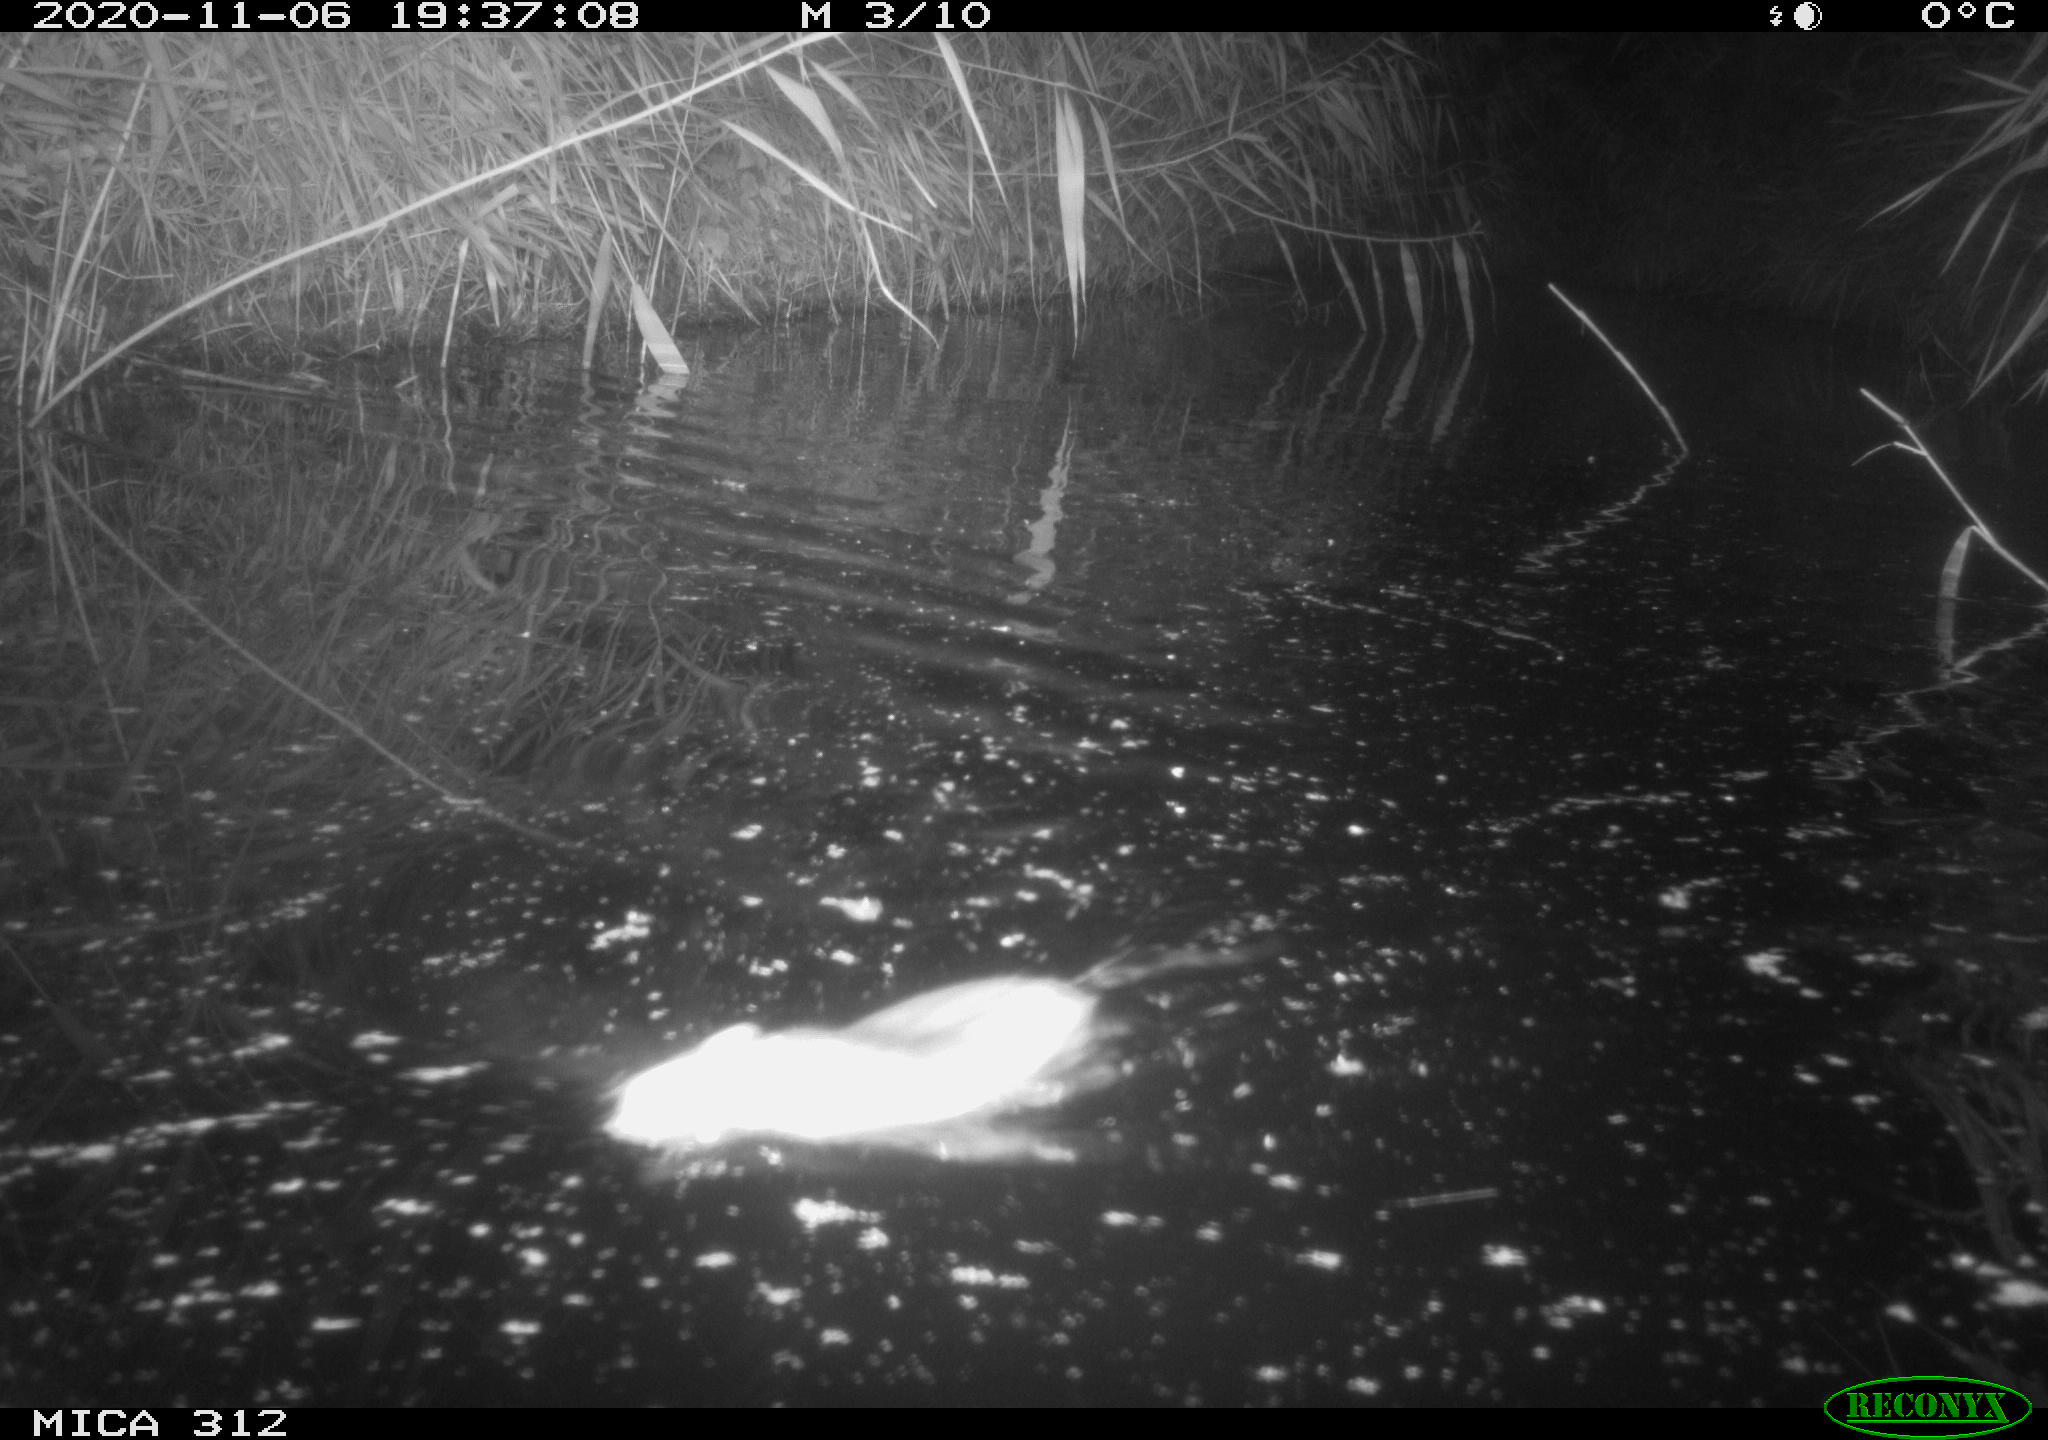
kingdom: Animalia
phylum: Chordata
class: Mammalia
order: Rodentia
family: Muridae
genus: Rattus
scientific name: Rattus norvegicus
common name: Brown rat
